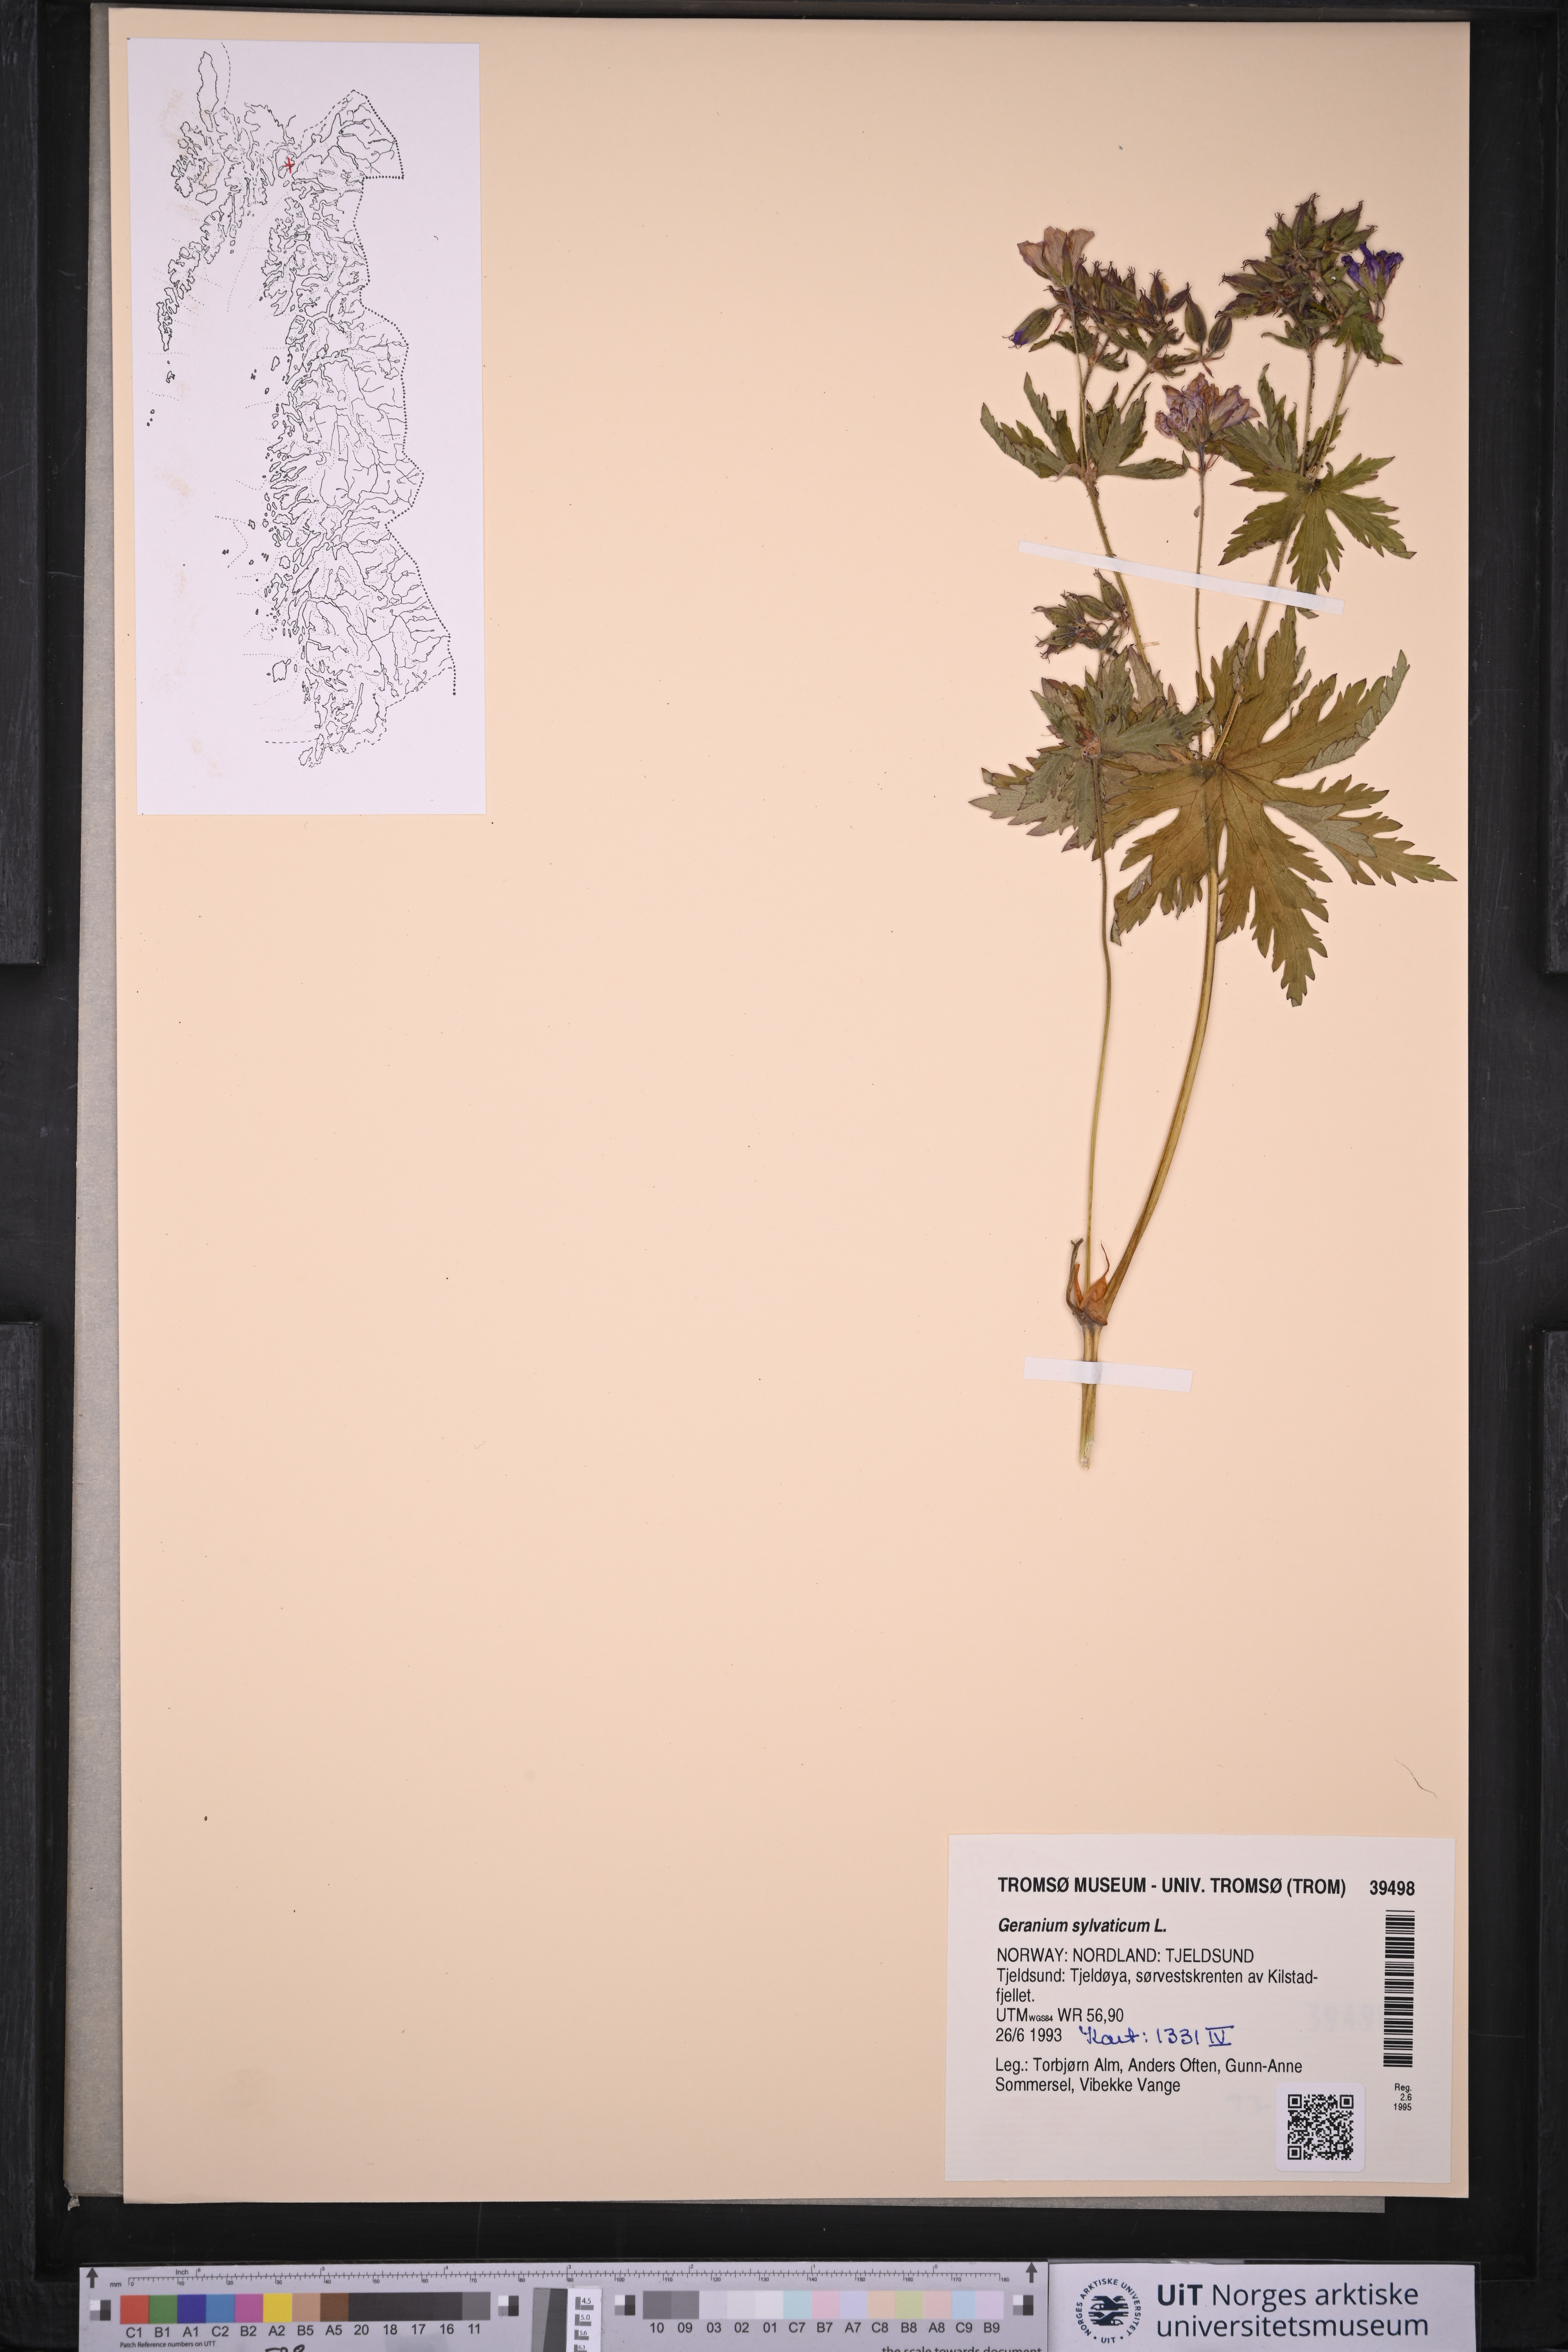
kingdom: Plantae
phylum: Tracheophyta
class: Magnoliopsida
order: Geraniales
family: Geraniaceae
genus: Geranium
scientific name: Geranium sylvaticum
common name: Wood crane's-bill
